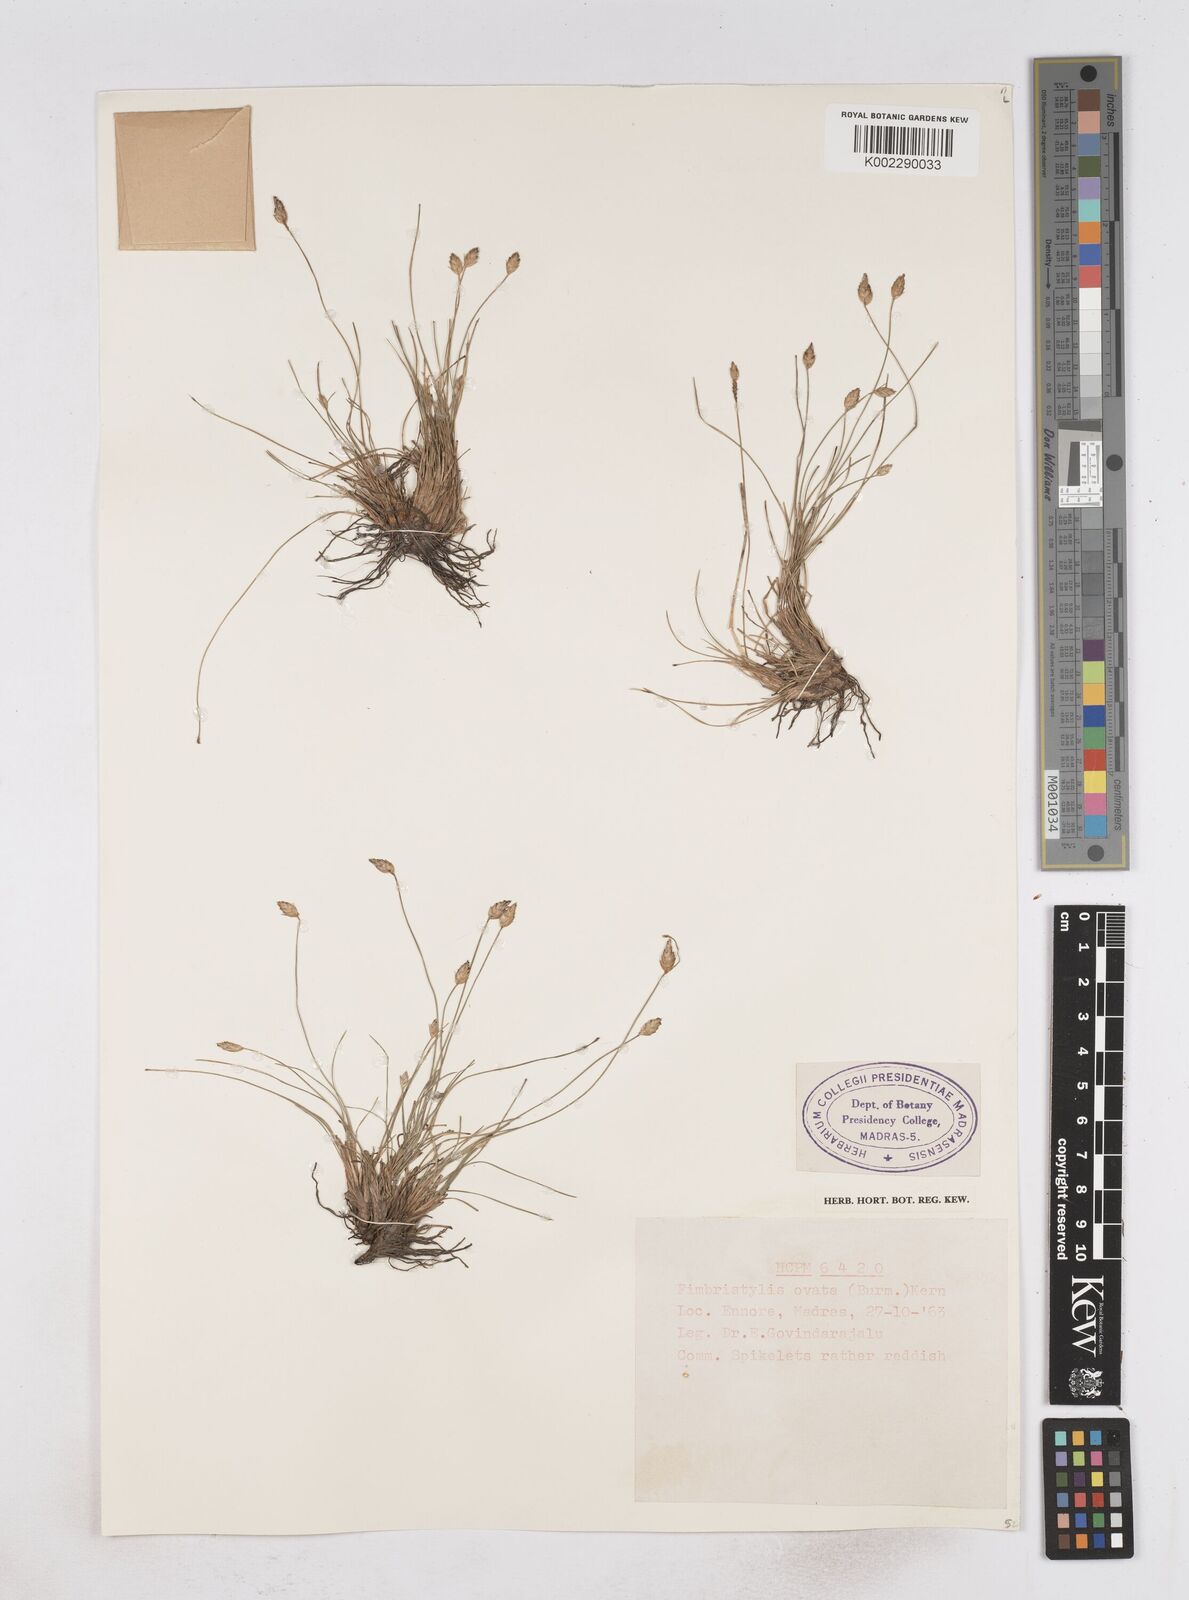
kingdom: Plantae
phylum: Tracheophyta
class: Liliopsida
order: Poales
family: Cyperaceae
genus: Abildgaardia
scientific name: Abildgaardia ovata
